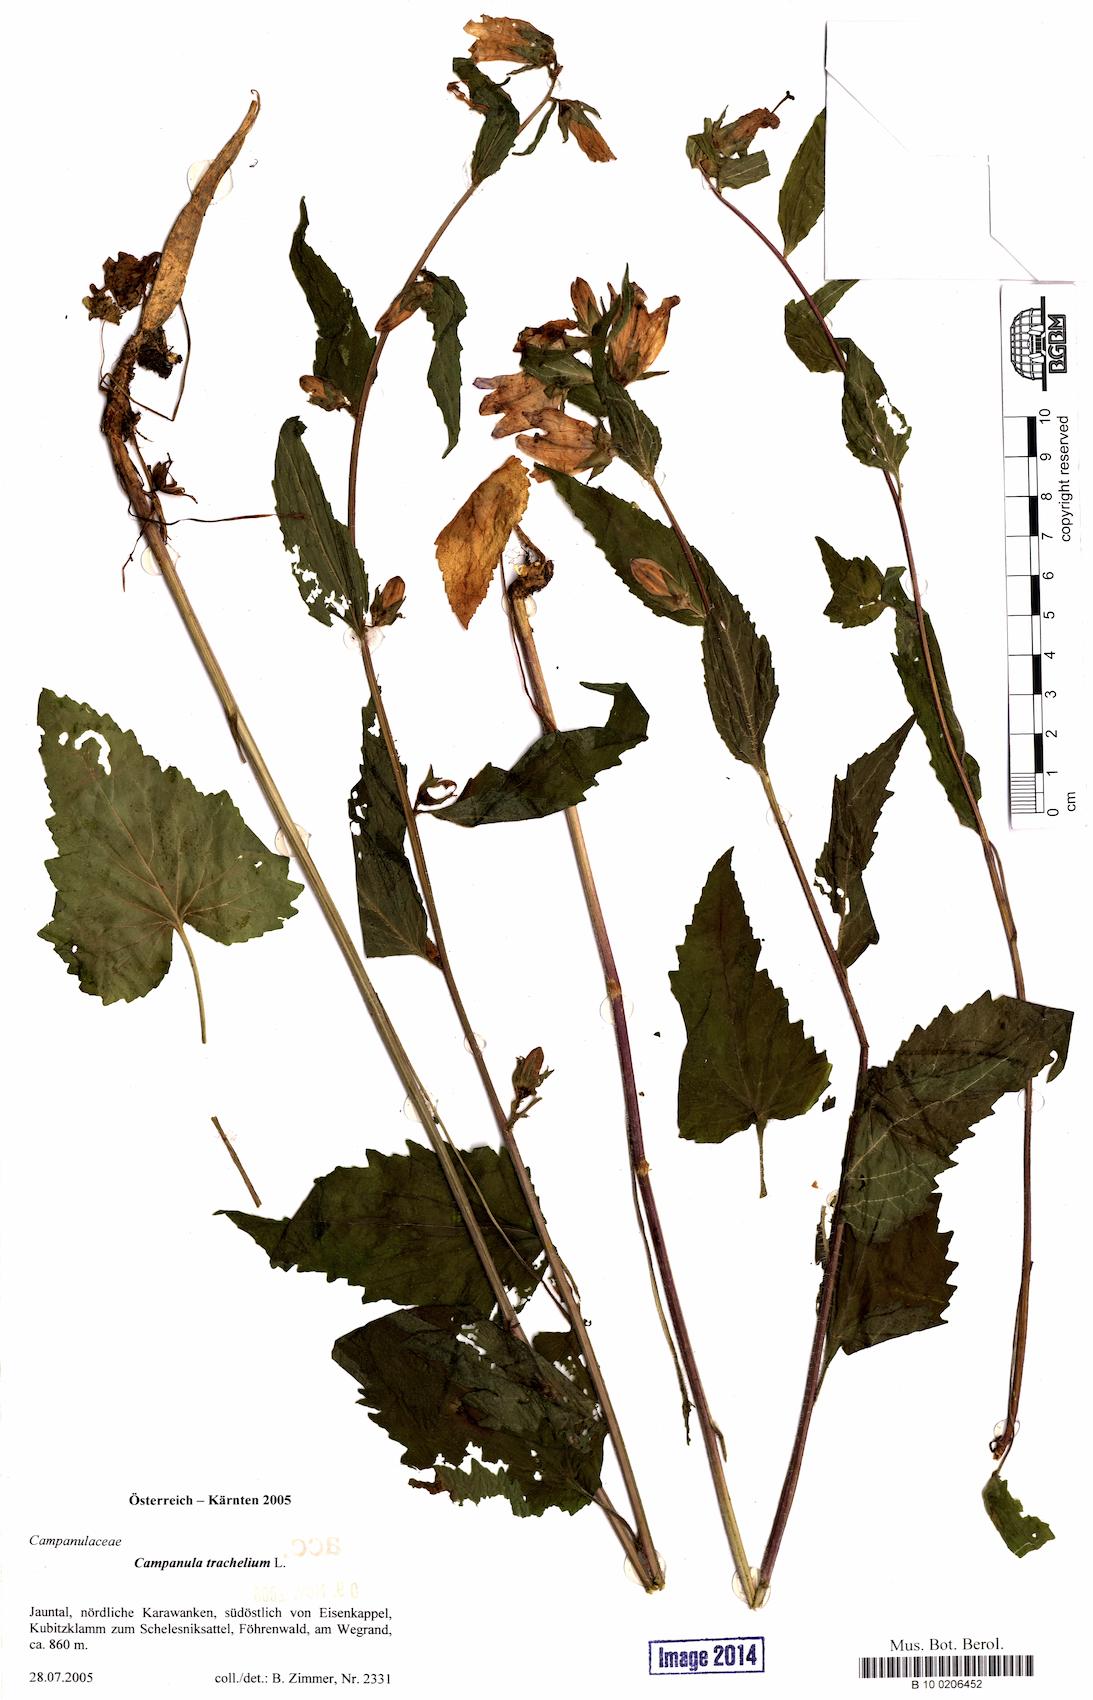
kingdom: Plantae
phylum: Tracheophyta
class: Magnoliopsida
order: Asterales
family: Campanulaceae
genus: Campanula
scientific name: Campanula trachelium
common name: Nettle-leaved bellflower
